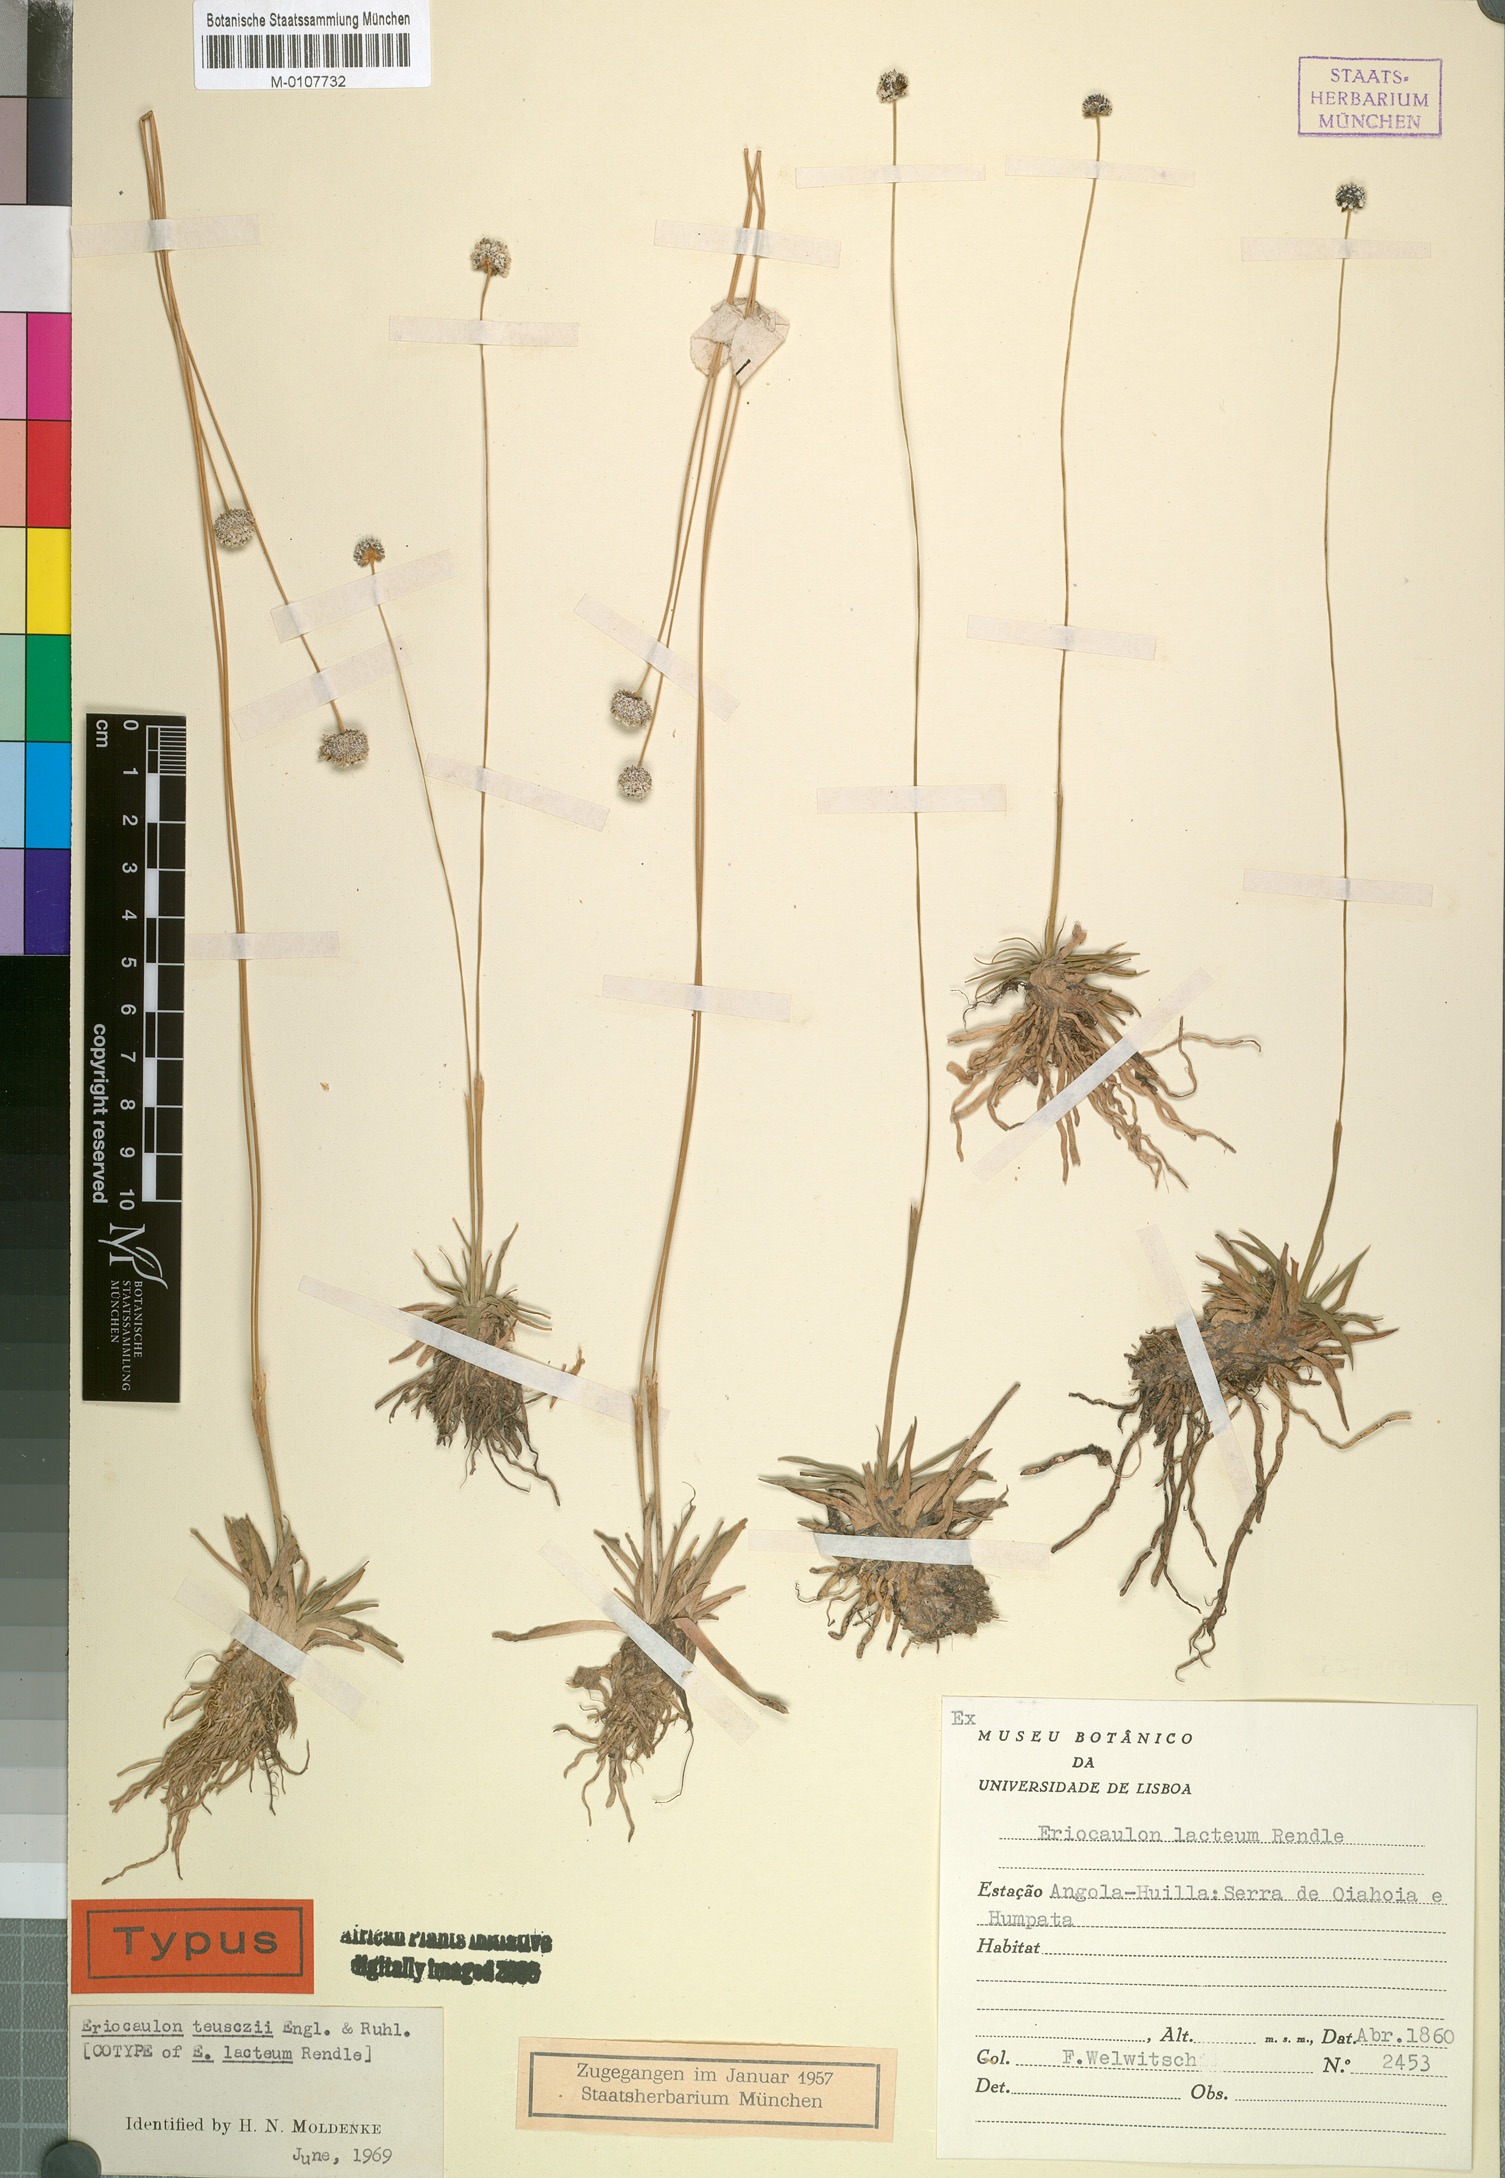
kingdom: Plantae
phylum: Tracheophyta
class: Liliopsida
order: Poales
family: Eriocaulaceae
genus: Eriocaulon
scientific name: Eriocaulon teusczii
